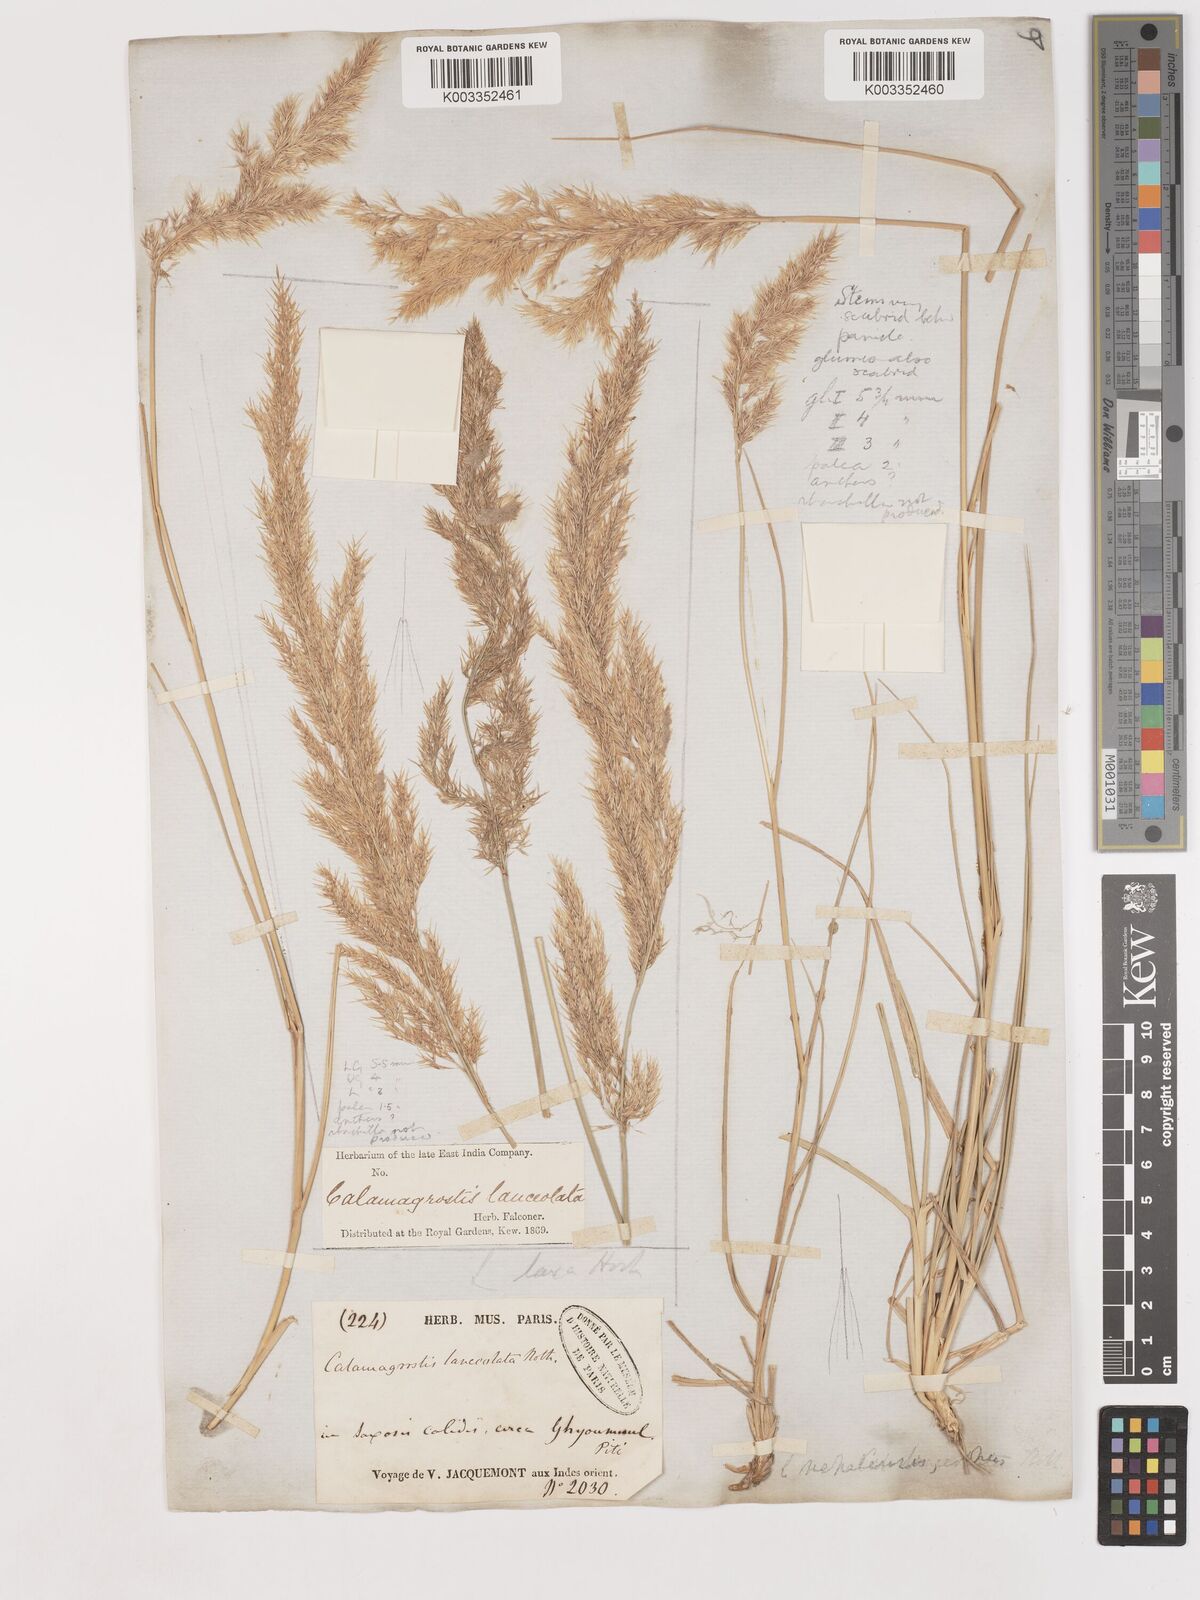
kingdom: Plantae
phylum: Tracheophyta
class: Liliopsida
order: Poales
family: Poaceae
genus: Calamagrostis
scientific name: Calamagrostis pseudophragmites
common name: Coastal small-reed
